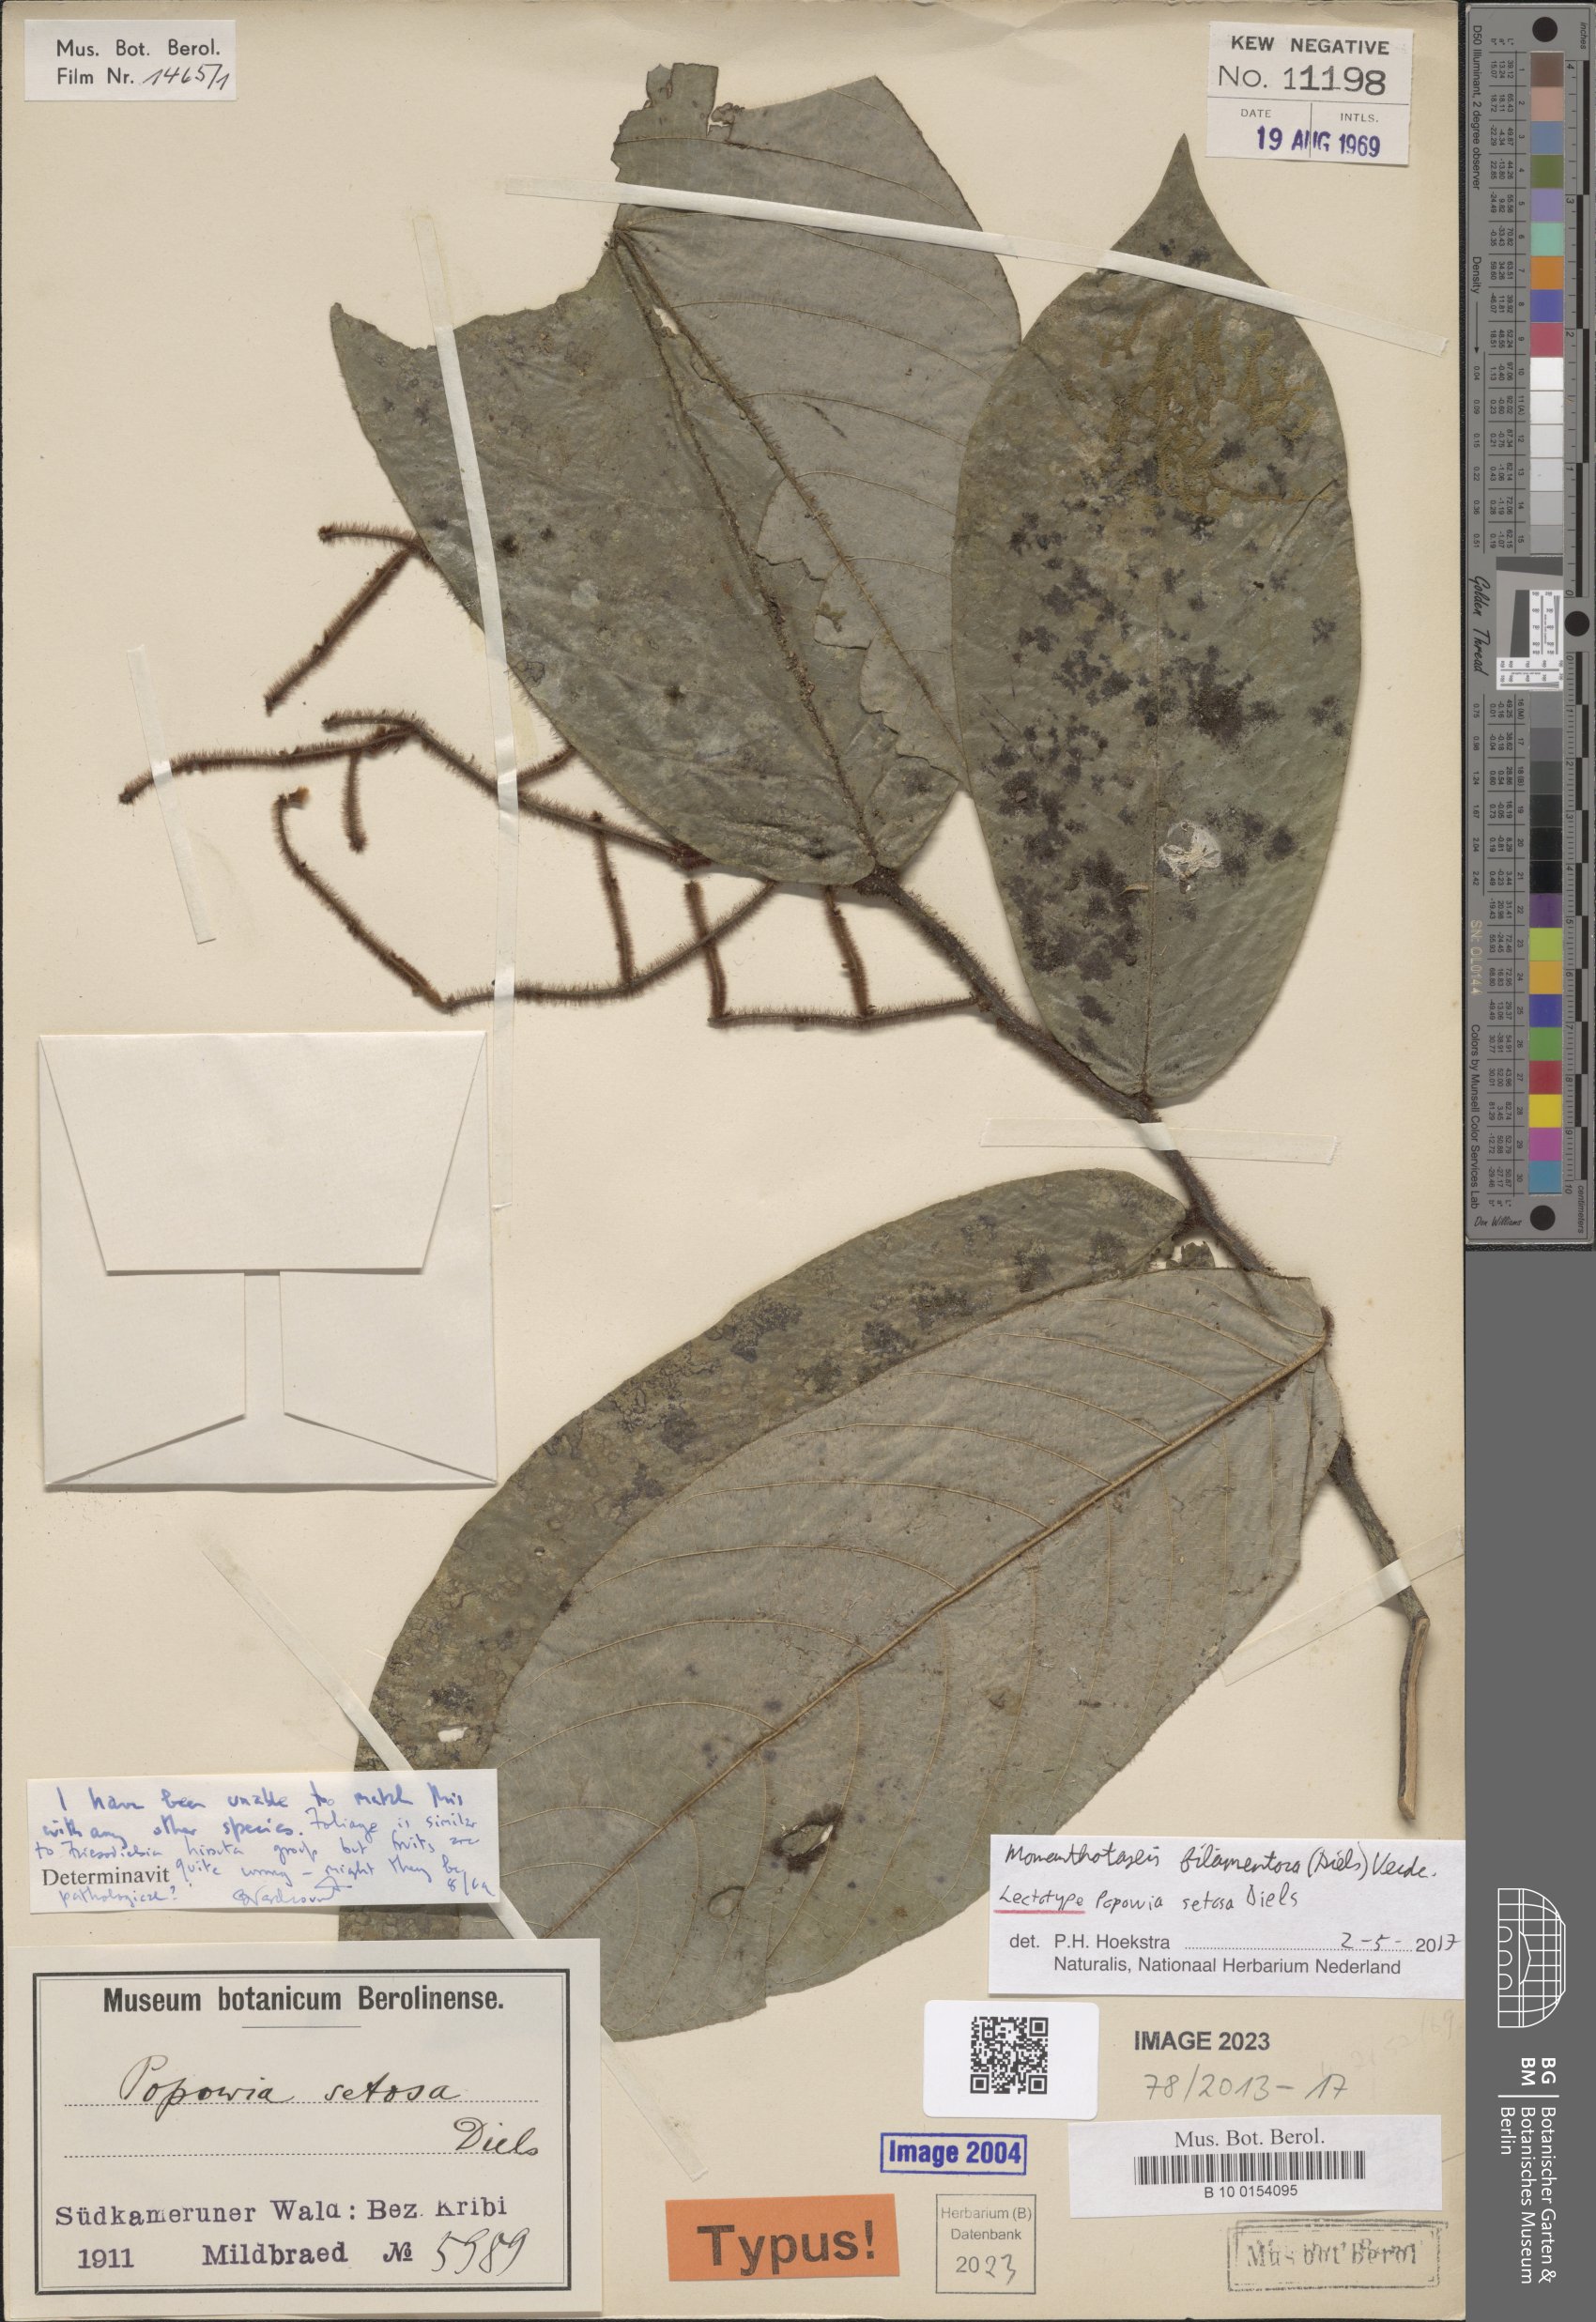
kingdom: Plantae
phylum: Tracheophyta
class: Magnoliopsida
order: Magnoliales
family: Annonaceae
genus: Monanthotaxis
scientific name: Monanthotaxis filamentosa
